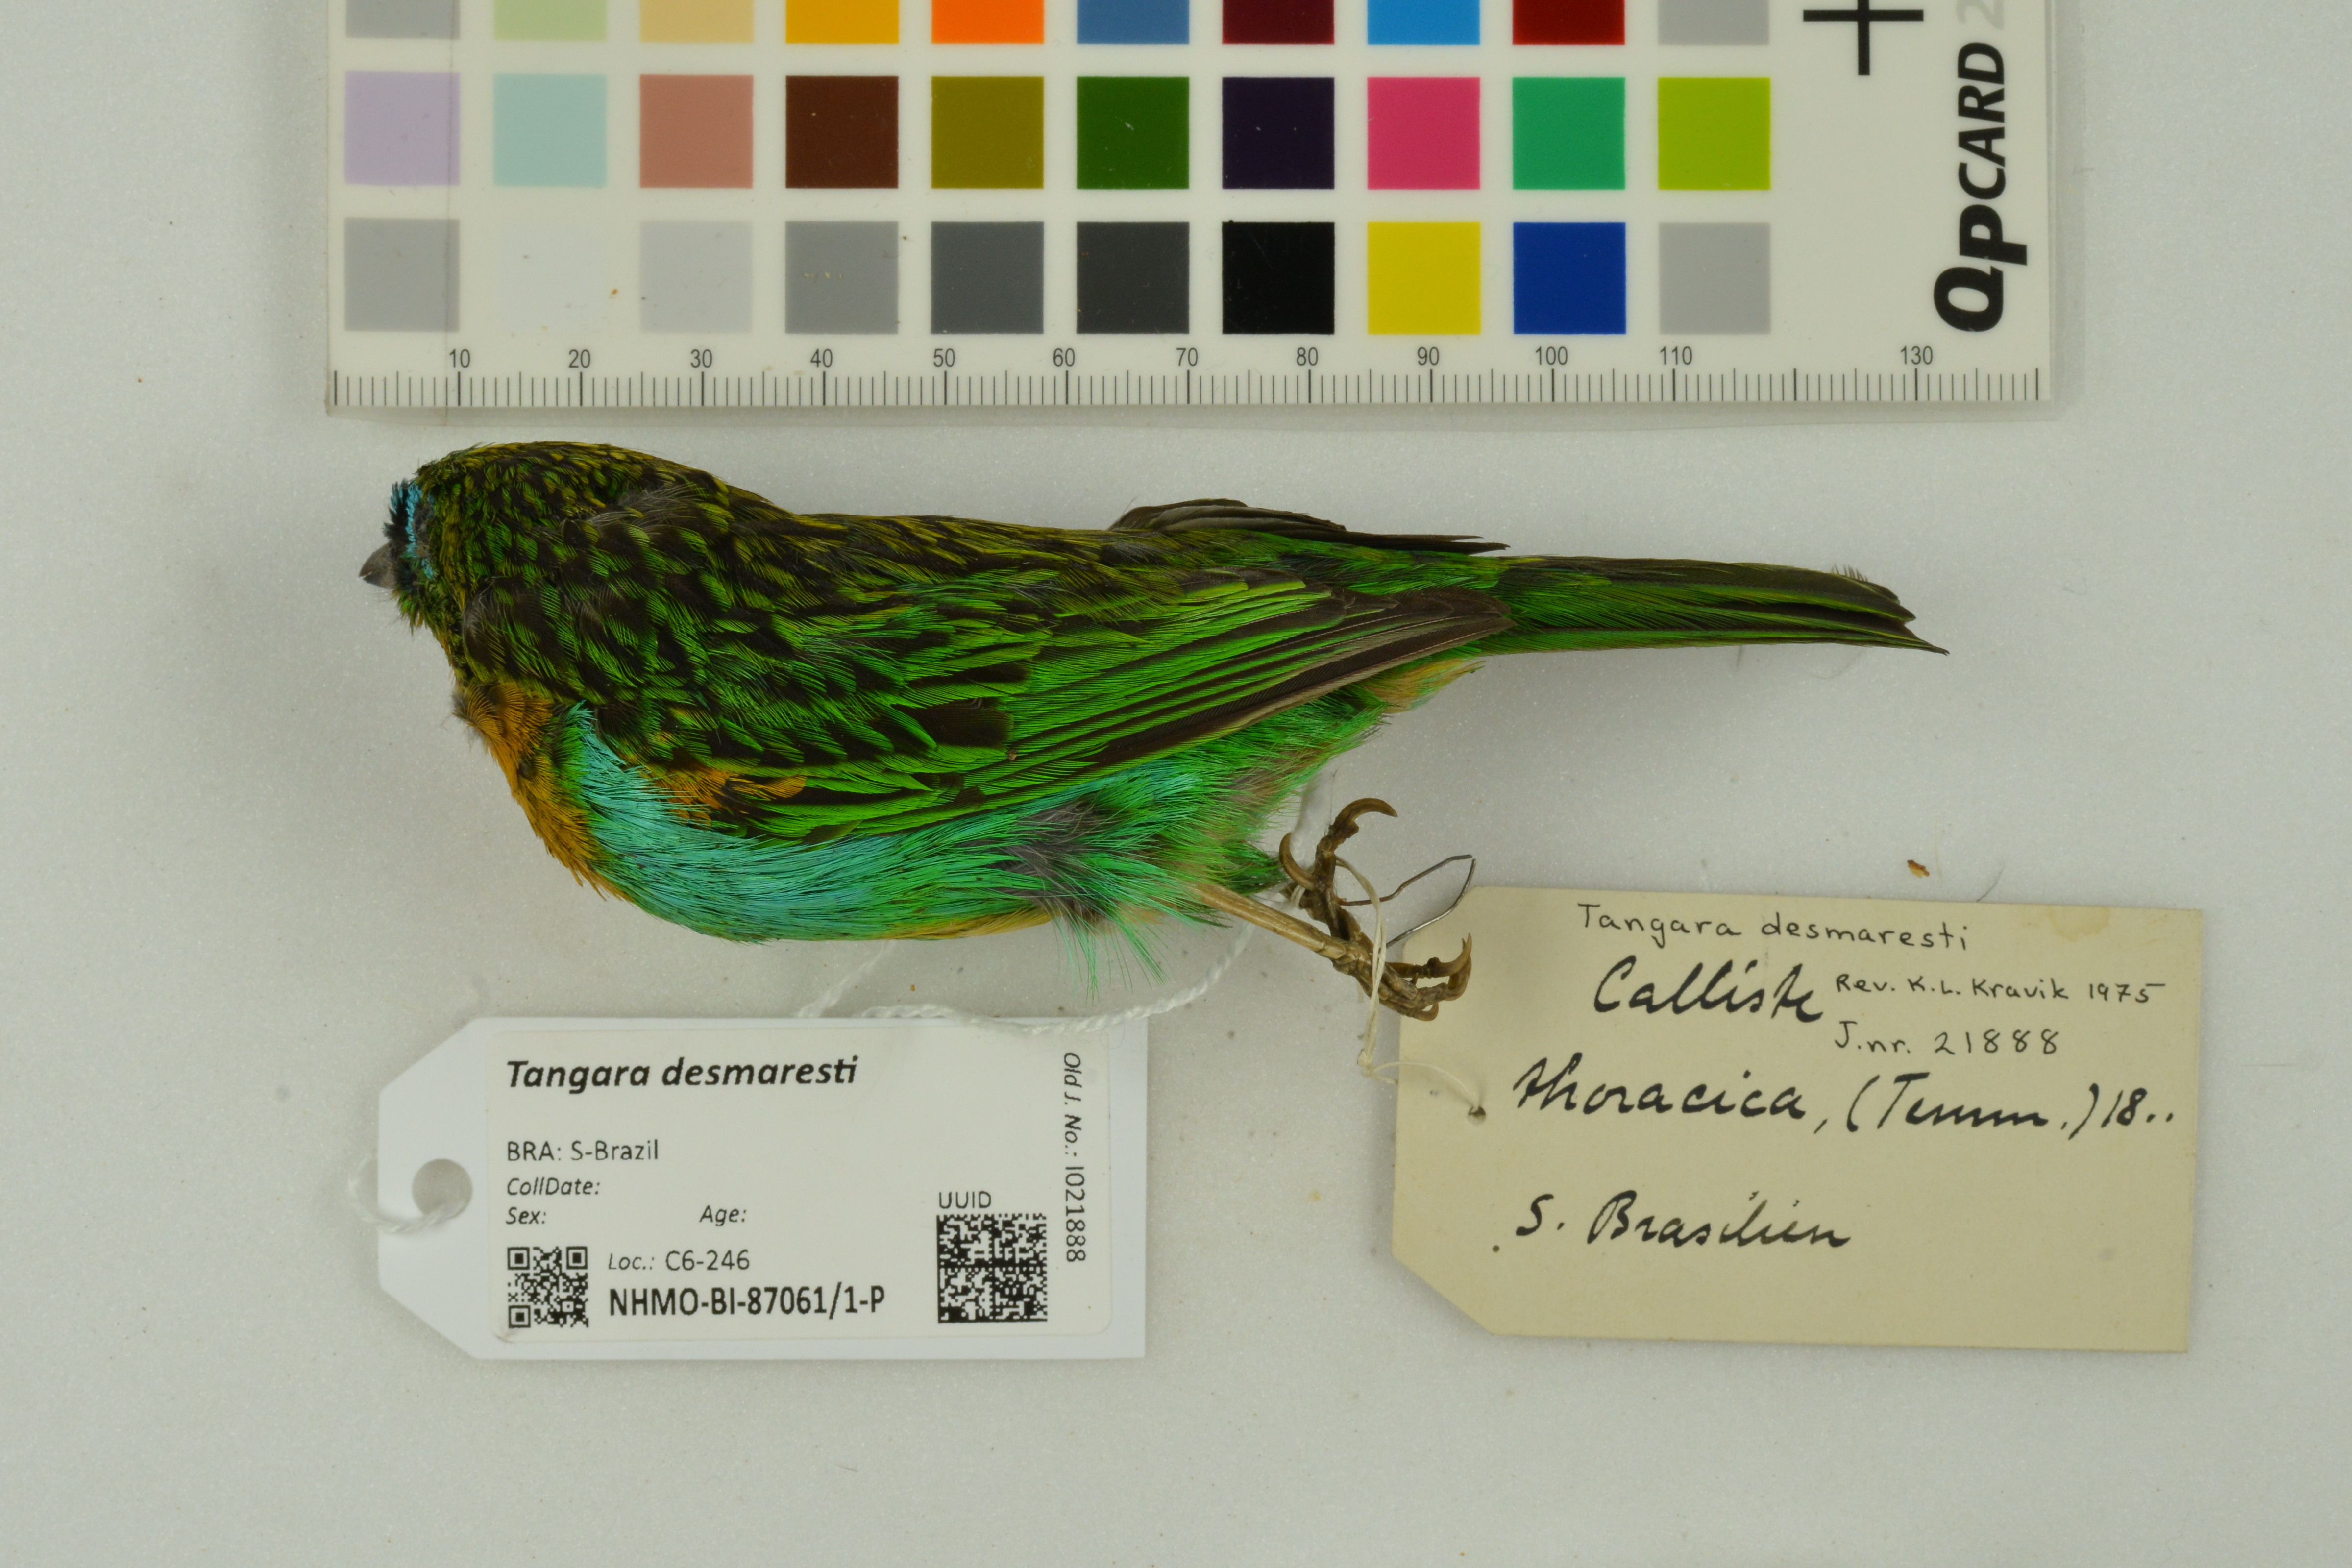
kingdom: Animalia
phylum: Chordata
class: Aves
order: Passeriformes
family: Thraupidae
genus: Tangara
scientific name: Tangara desmaresti
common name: Brassy-breasted tanager
